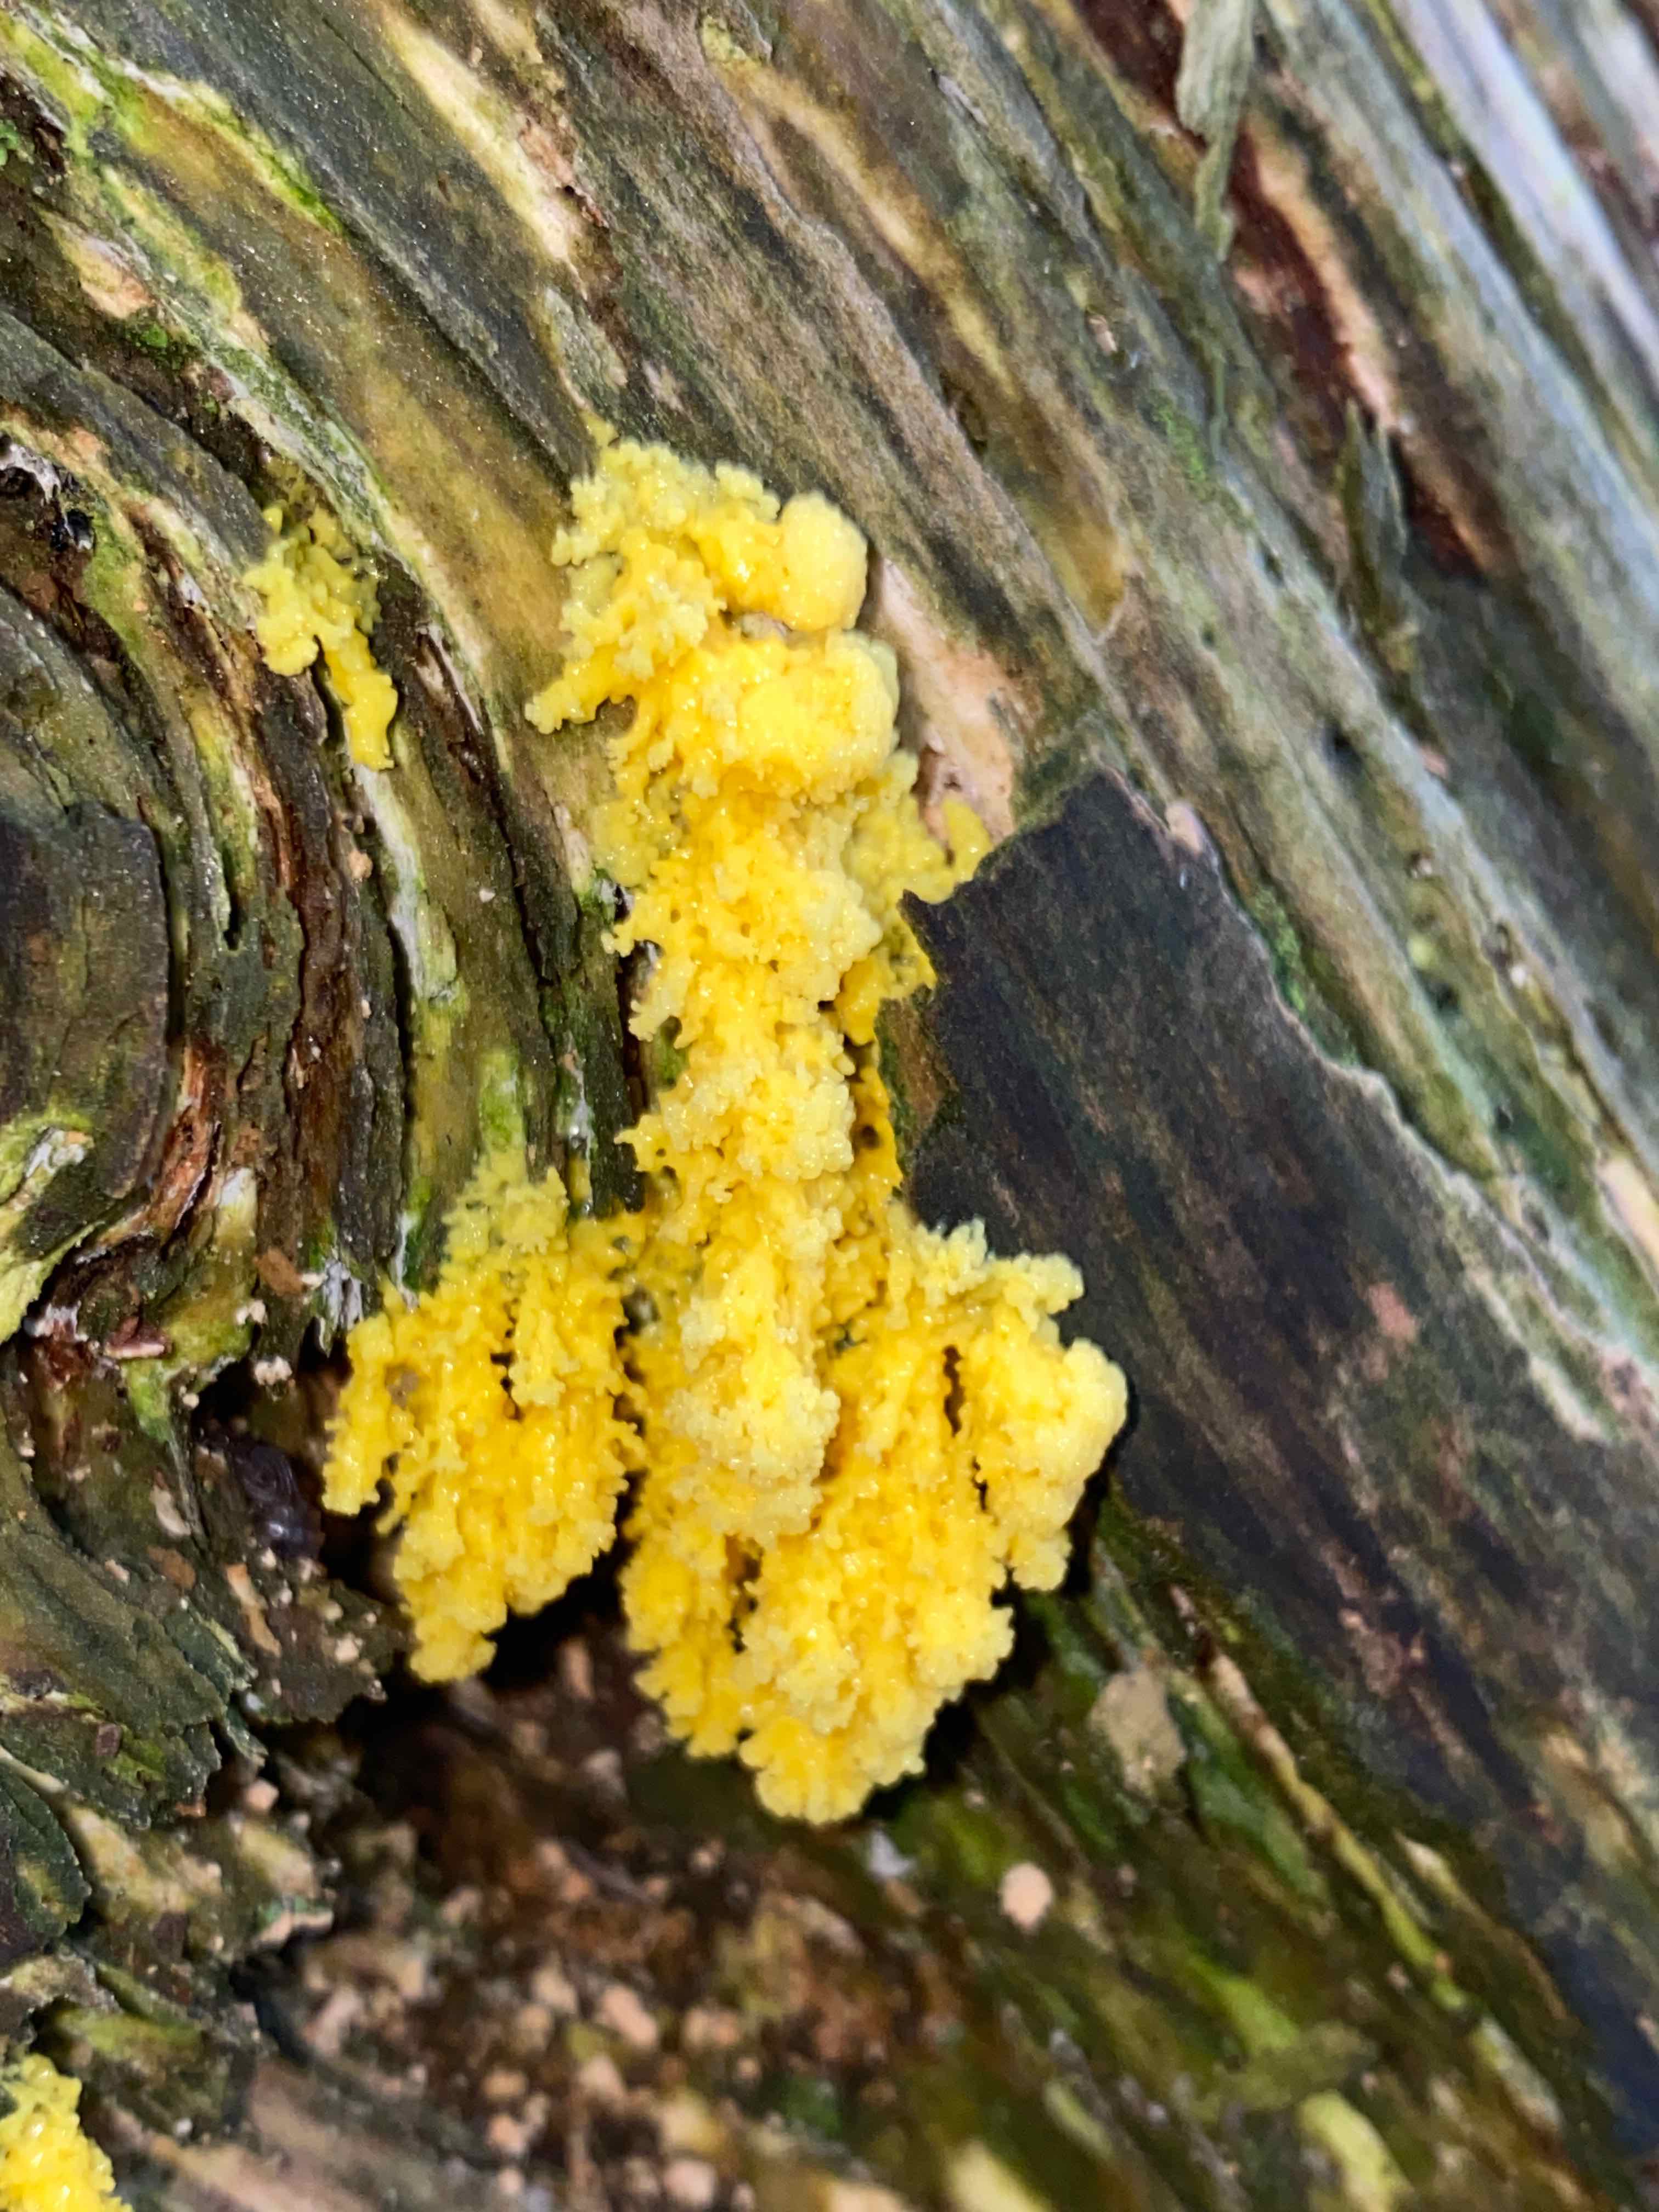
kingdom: Protozoa
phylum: Mycetozoa
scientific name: Mycetozoa
